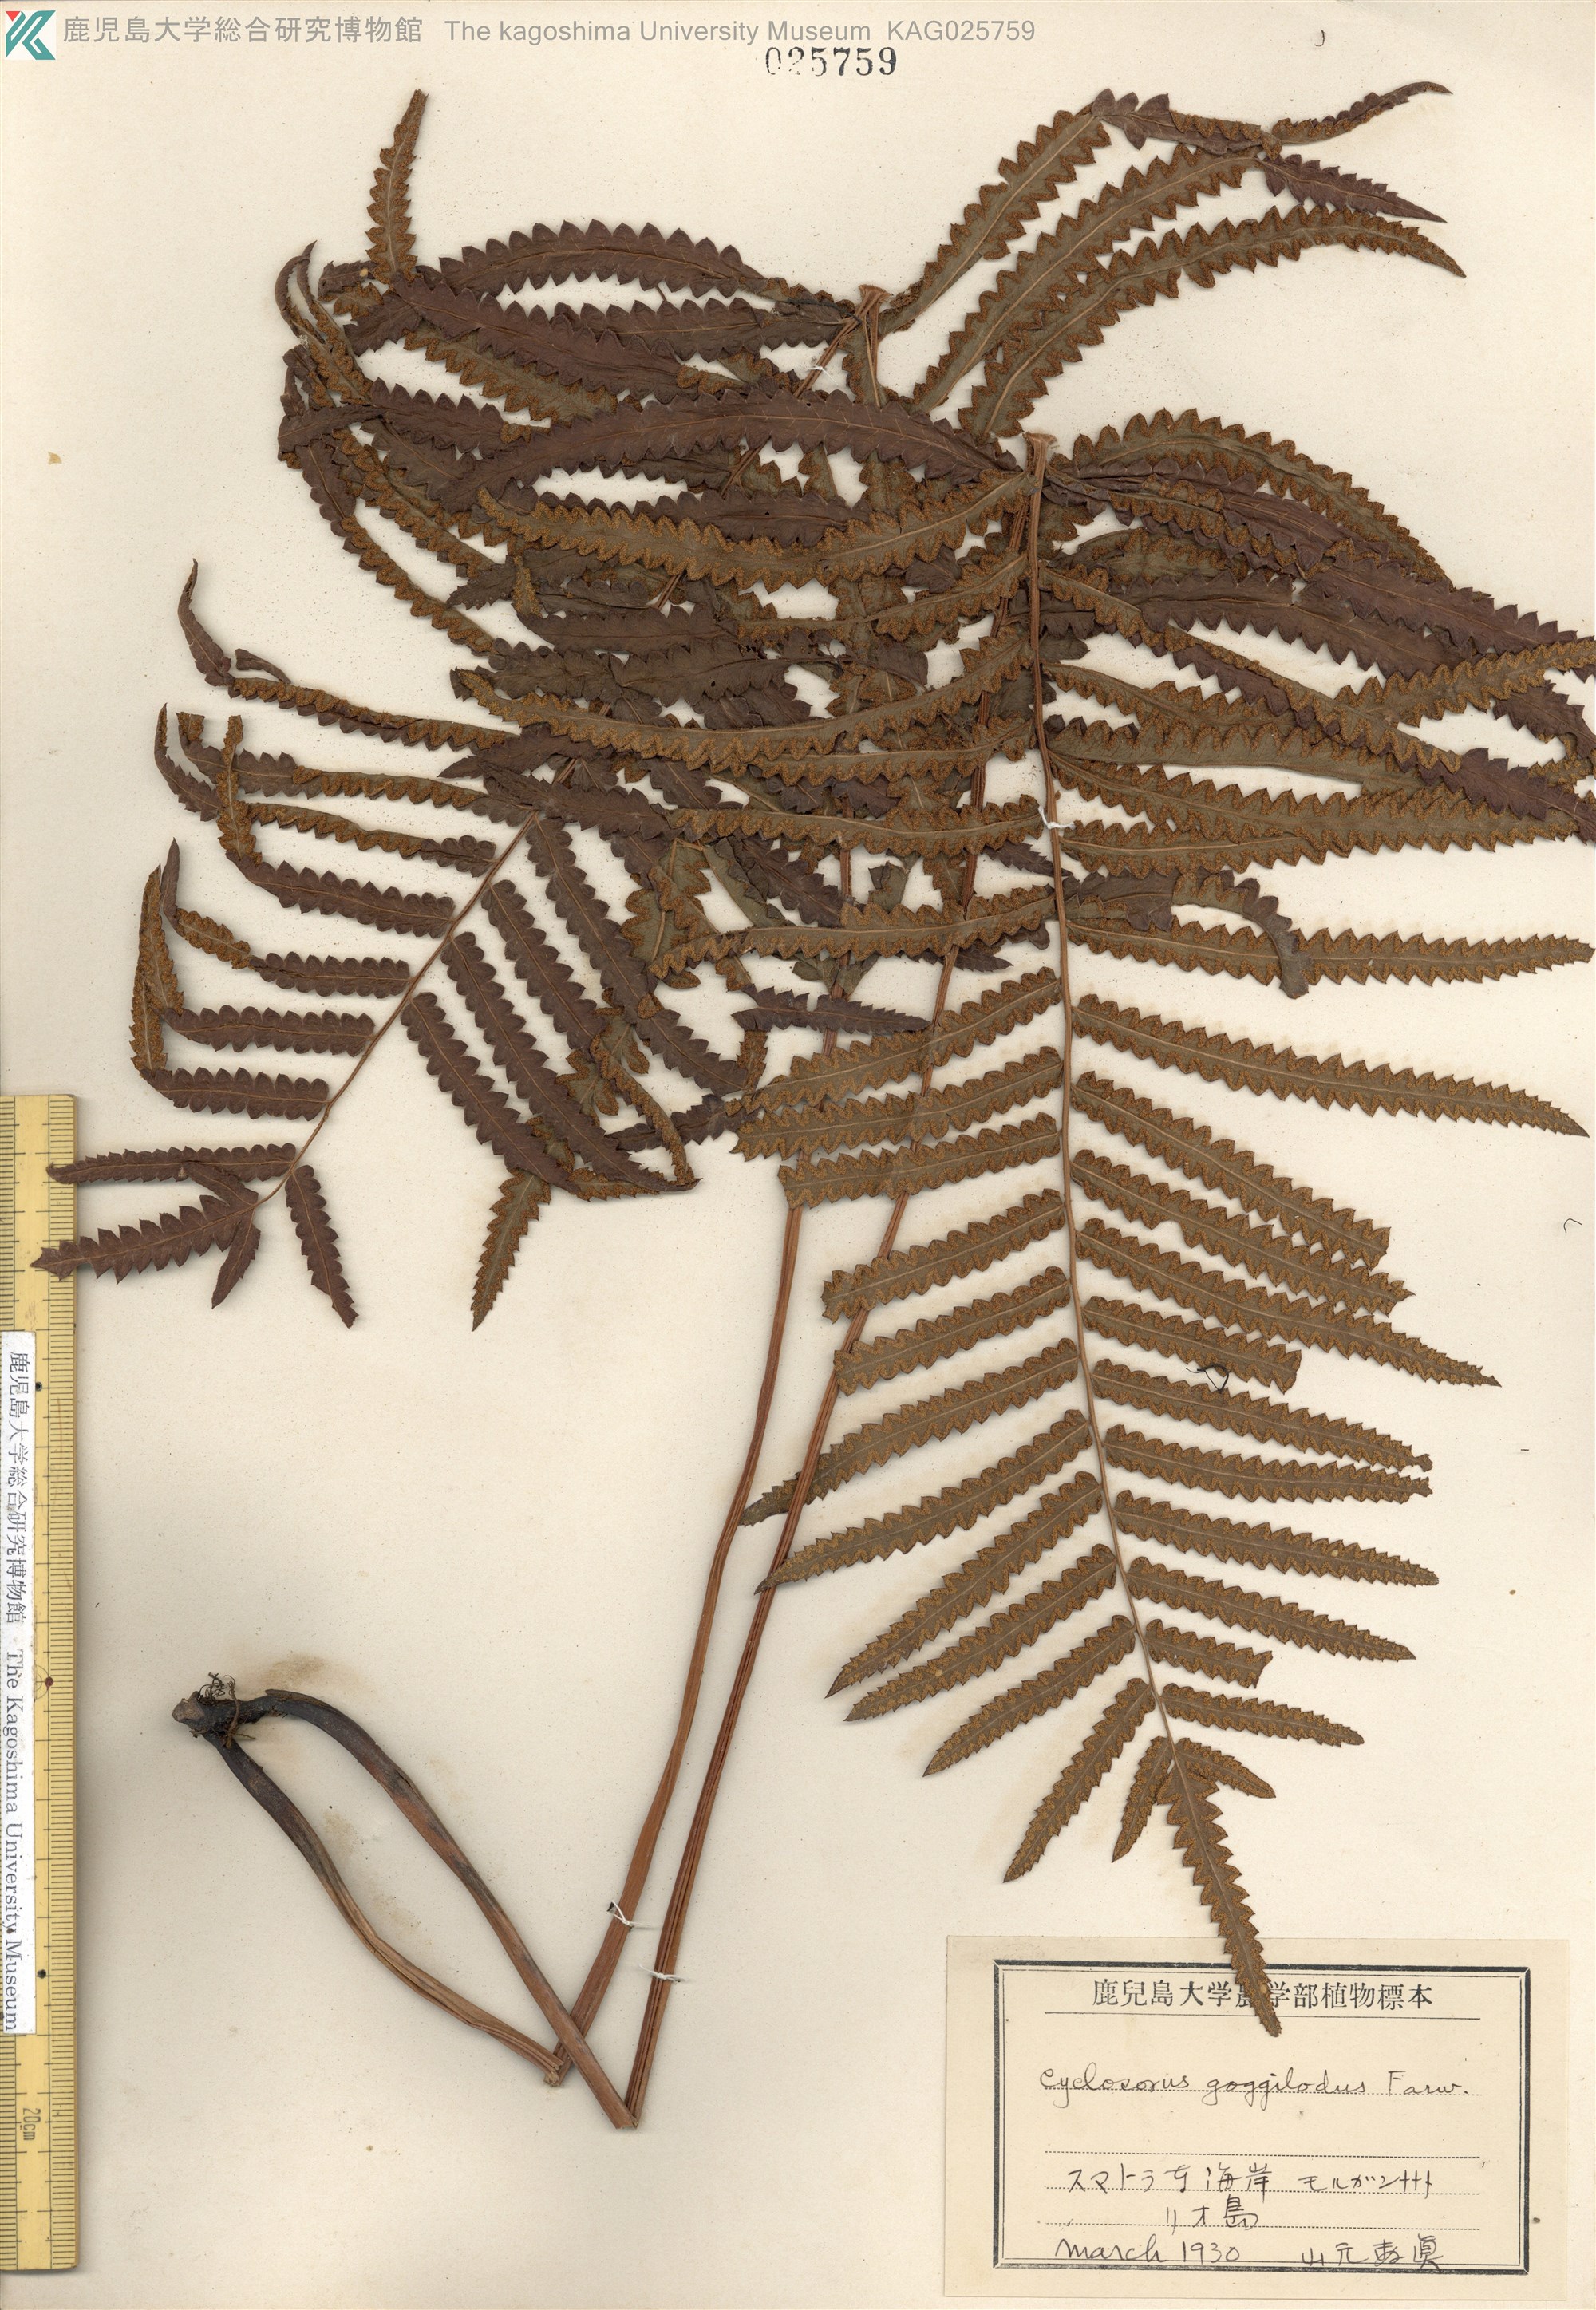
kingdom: Plantae
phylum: Tracheophyta
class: Polypodiopsida
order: Polypodiales
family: Thelypteridaceae
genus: Cyclosorus
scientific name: Cyclosorus interruptus
